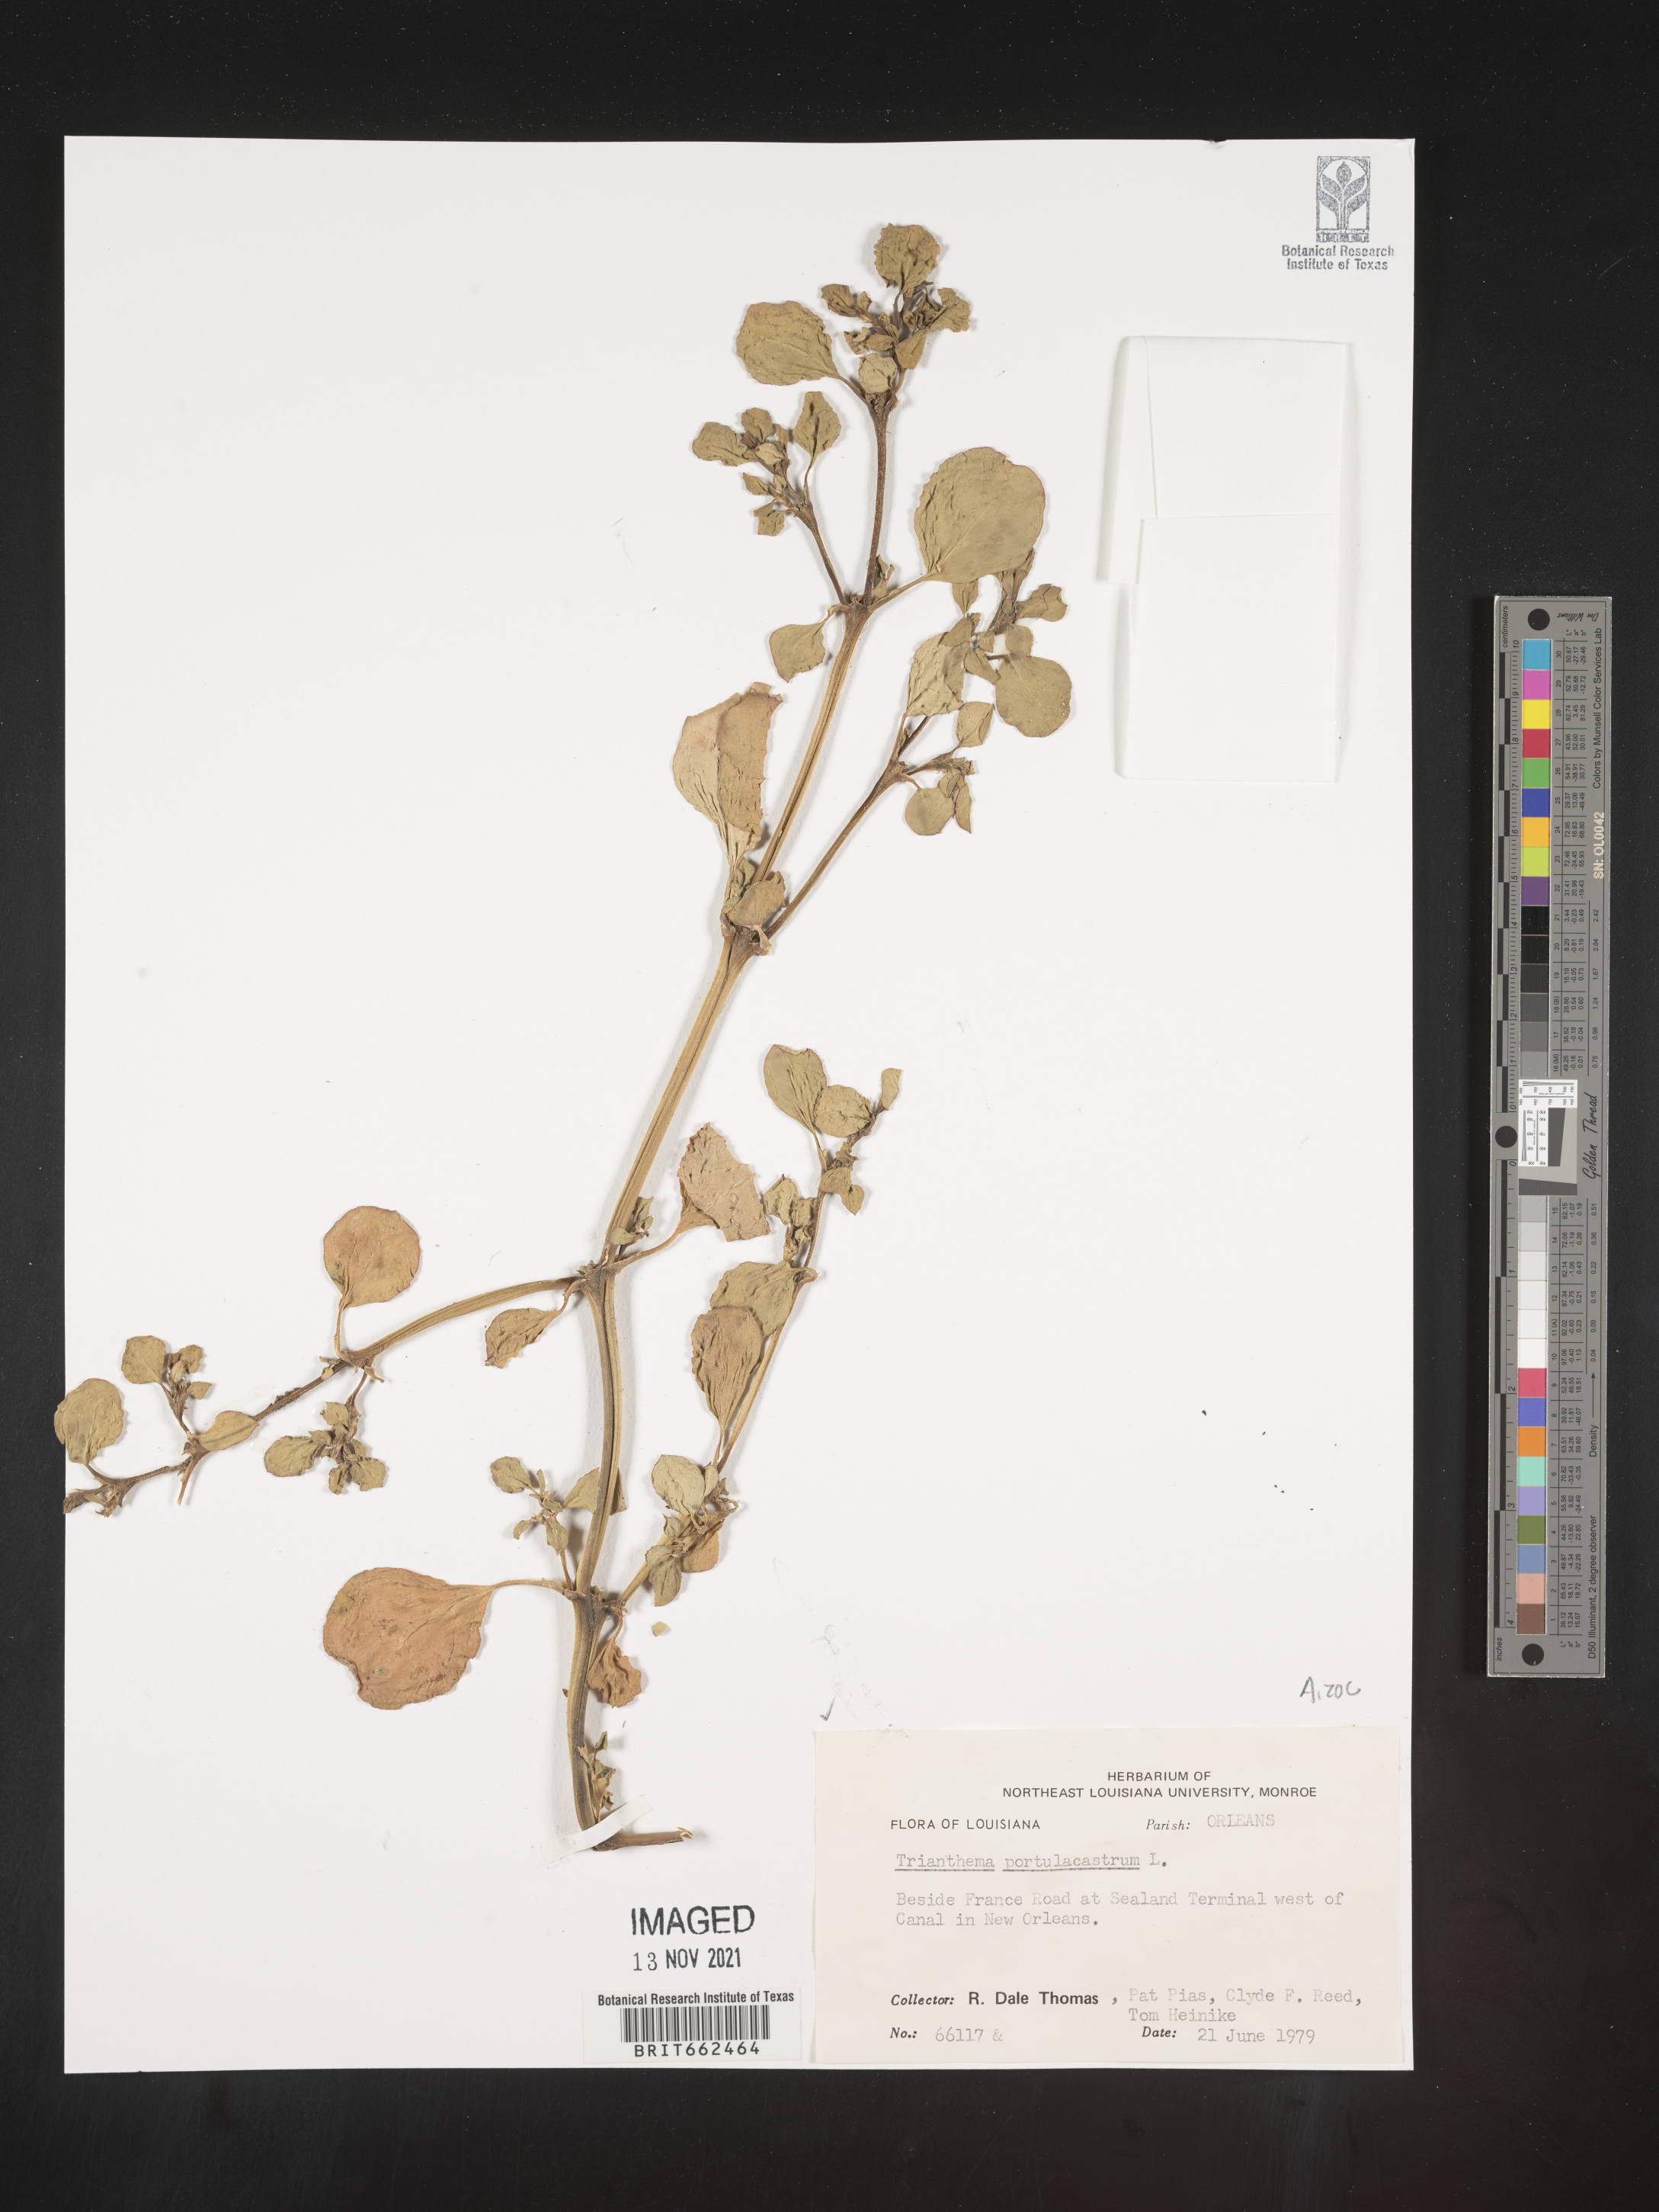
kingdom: Plantae
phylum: Tracheophyta
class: Magnoliopsida
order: Caryophyllales
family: Aizoaceae
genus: Trianthema
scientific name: Trianthema
